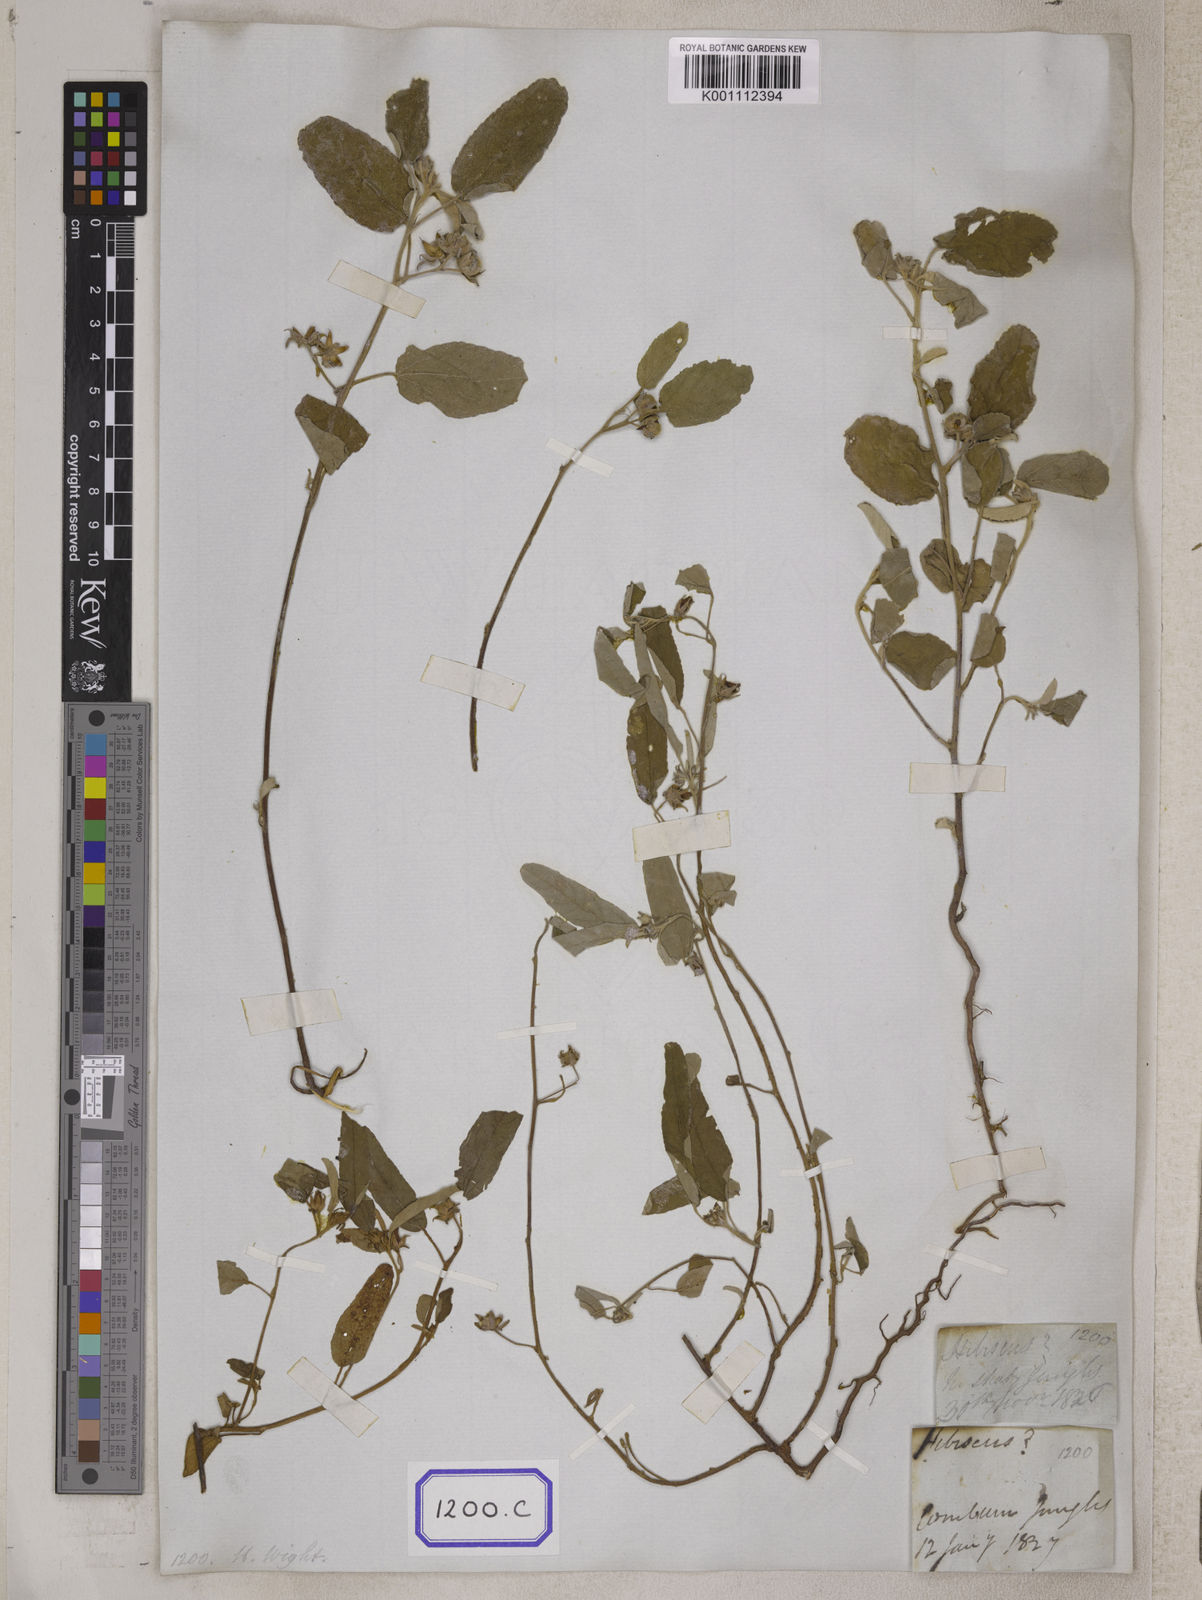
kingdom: Plantae
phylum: Tracheophyta
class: Magnoliopsida
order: Malvales
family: Malvaceae
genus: Melhania
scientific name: Melhania
